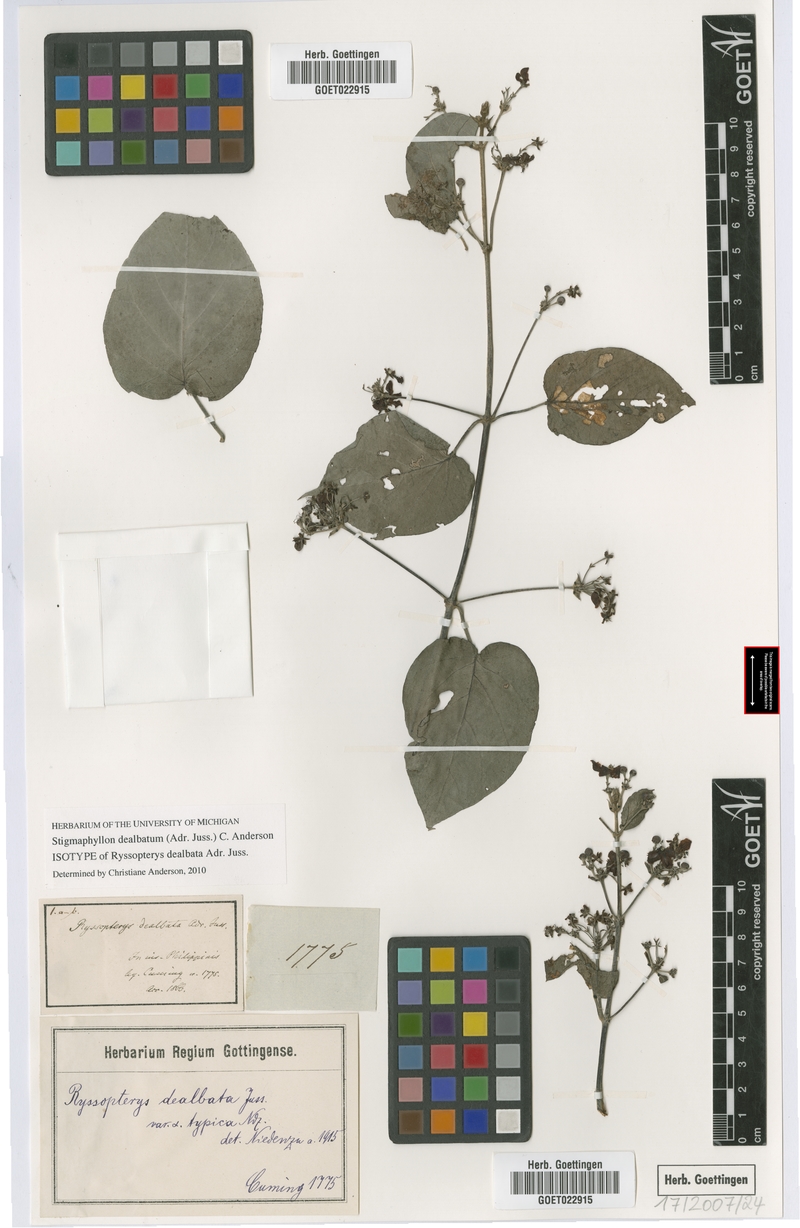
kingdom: Plantae
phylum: Tracheophyta
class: Magnoliopsida
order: Malpighiales
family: Malpighiaceae
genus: Stigmaphyllon
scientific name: Stigmaphyllon dealbatum
